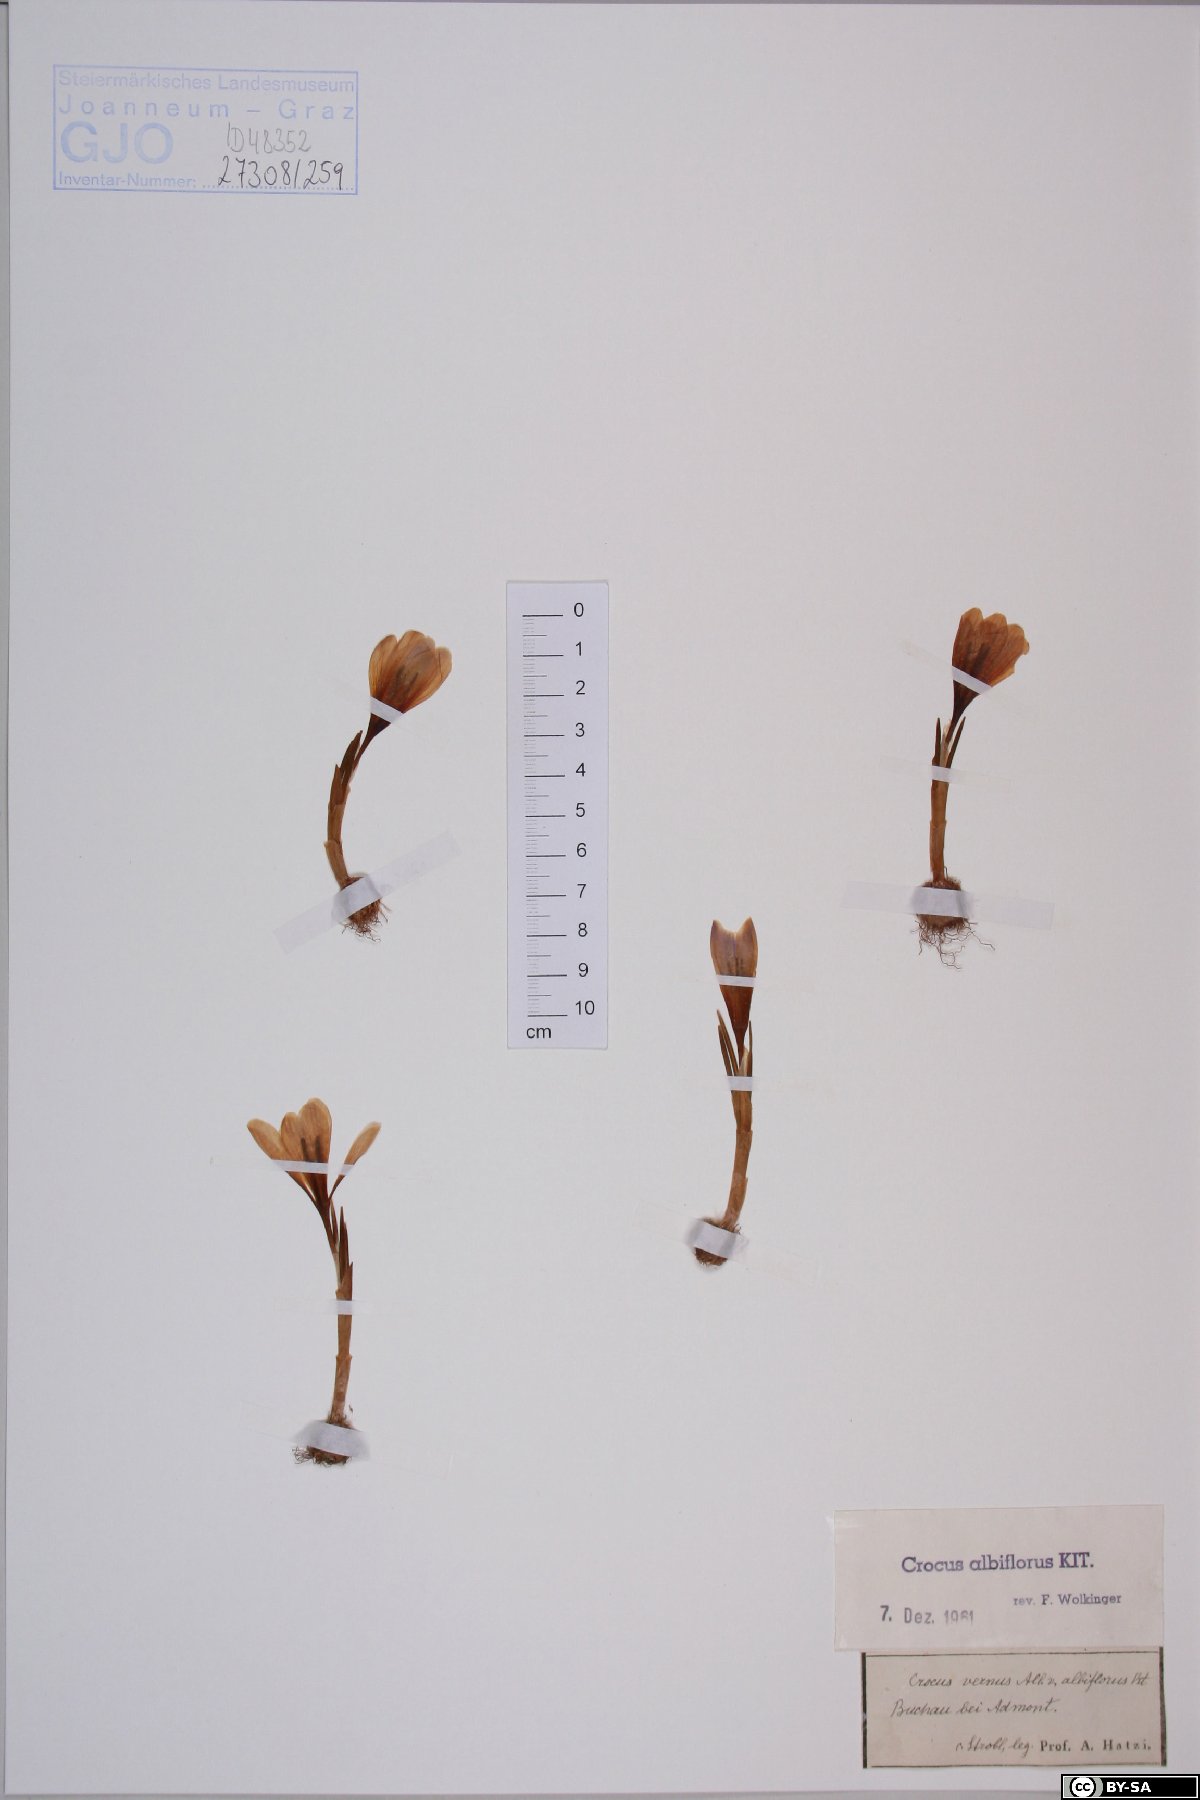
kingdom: Plantae
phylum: Tracheophyta
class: Liliopsida
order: Asparagales
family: Iridaceae
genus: Crocus
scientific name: Crocus vernus
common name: Spring crocus
